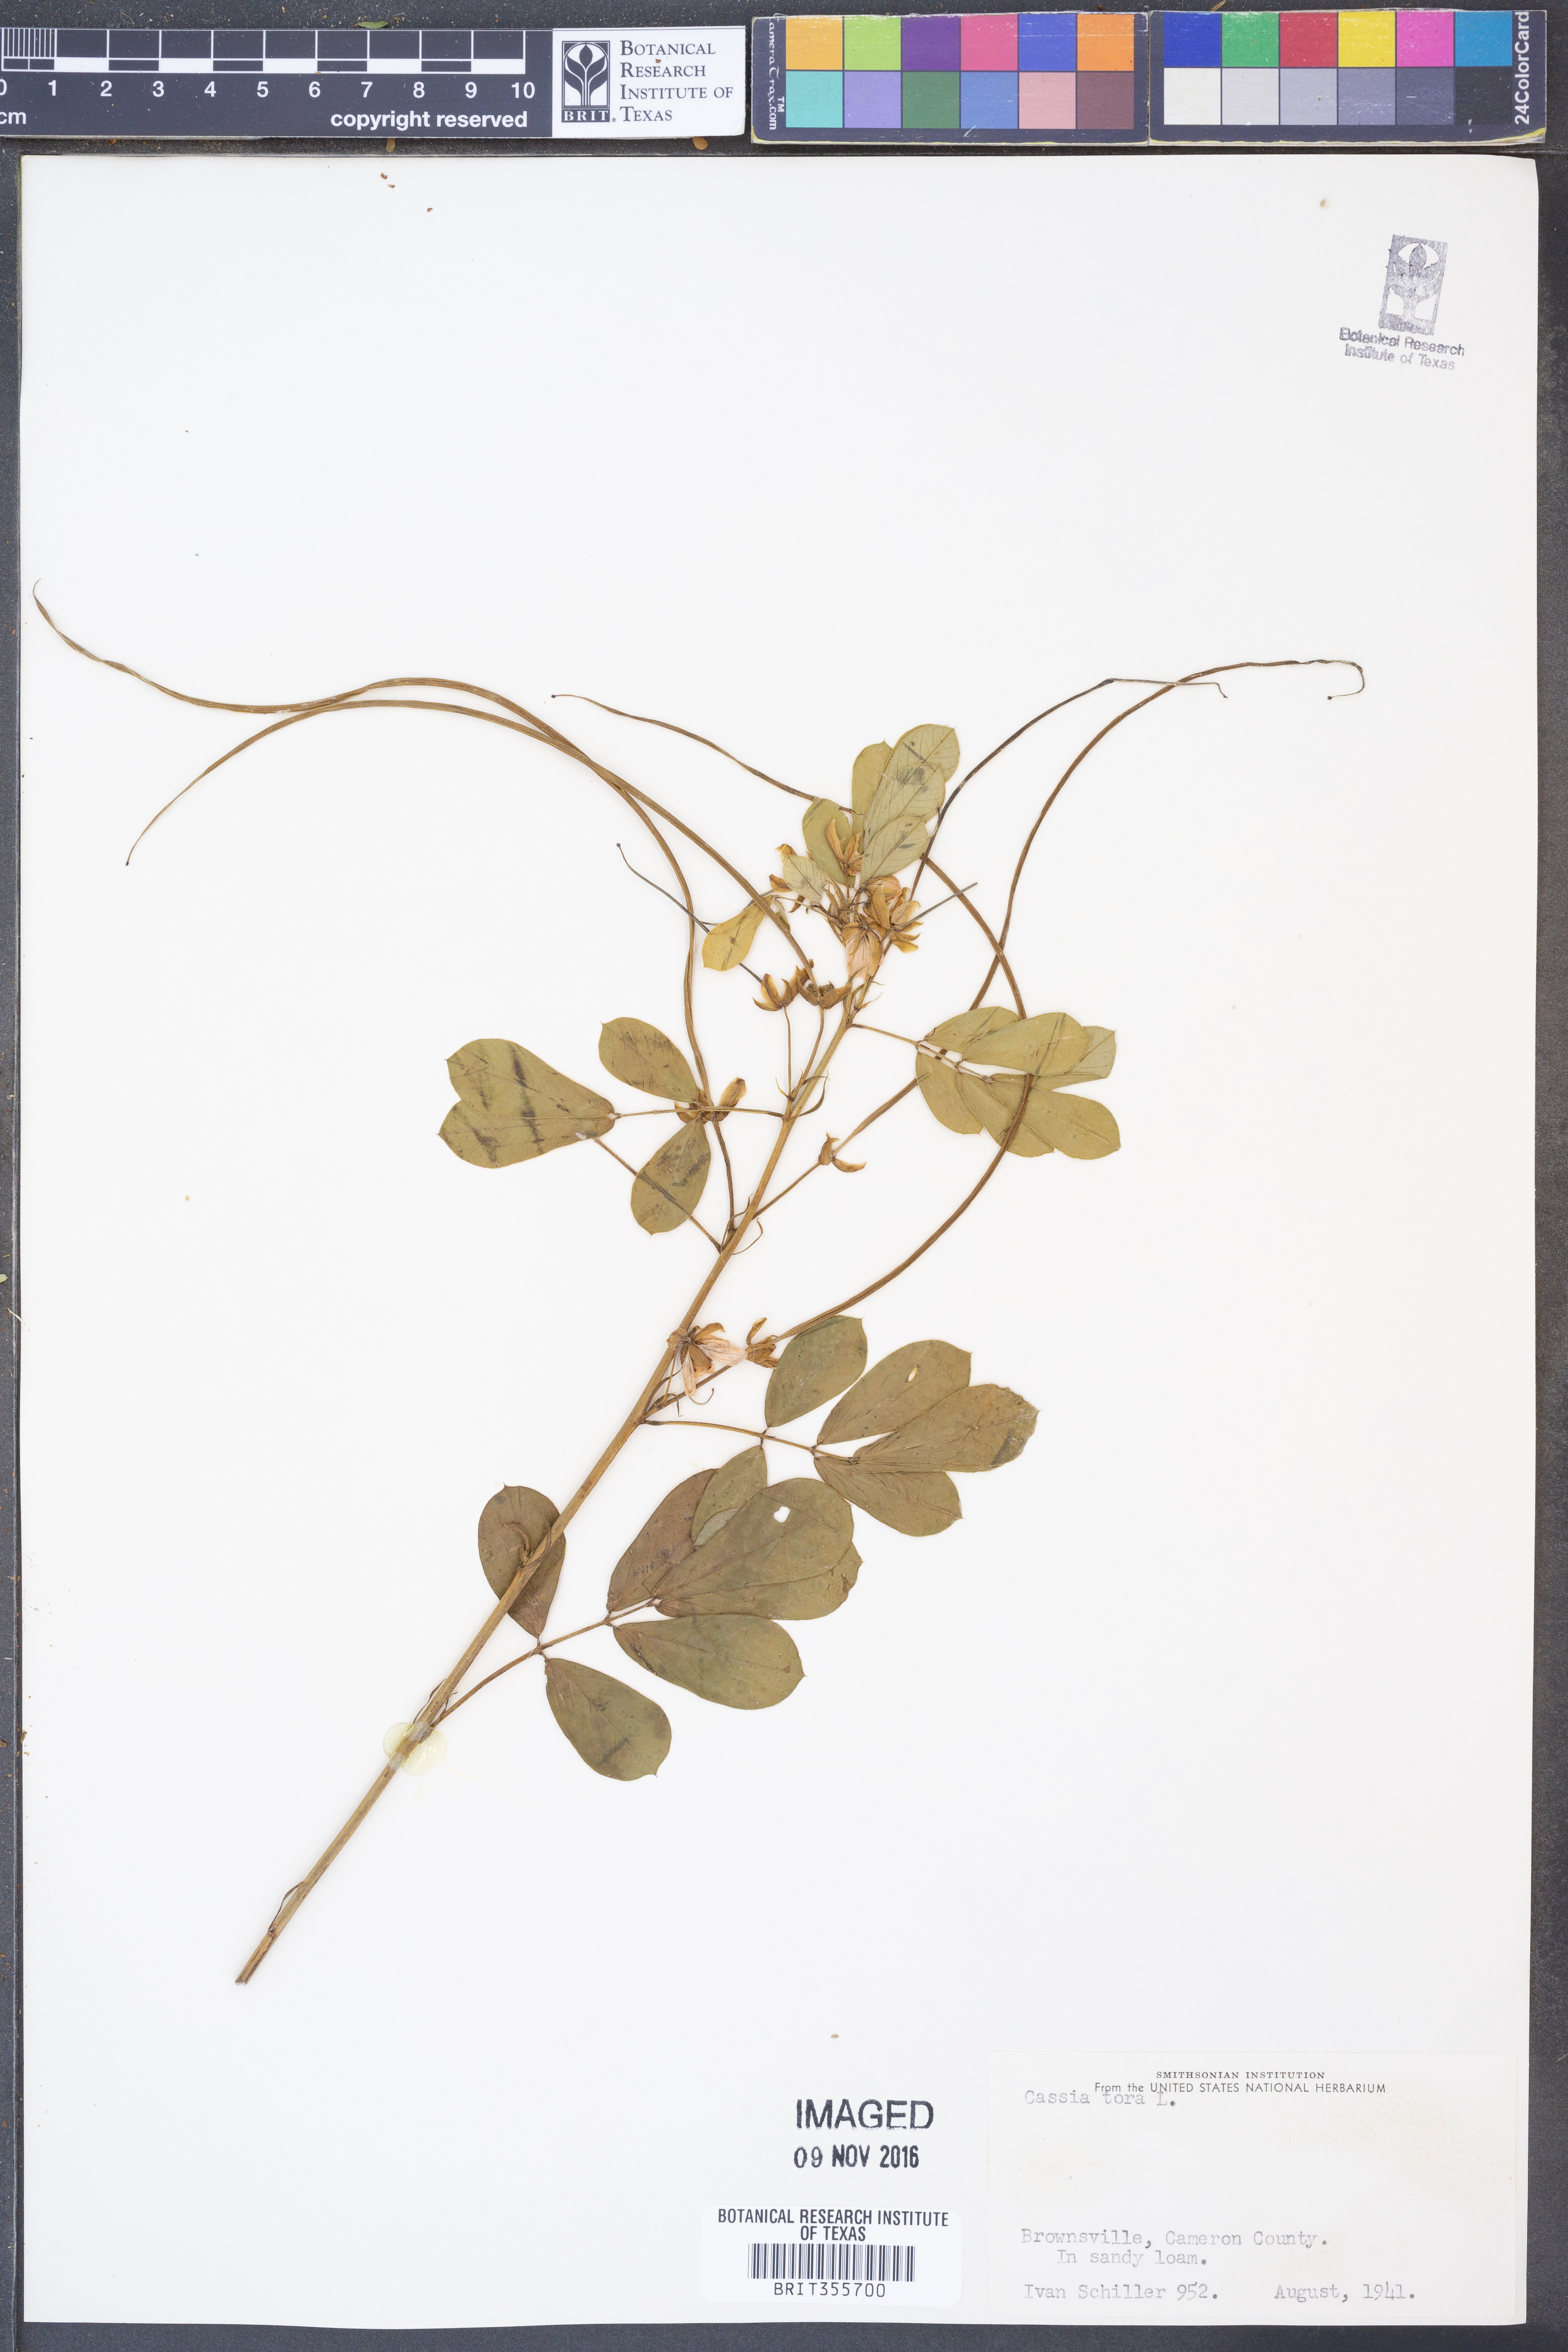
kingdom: Plantae
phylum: Tracheophyta
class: Magnoliopsida
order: Fabales
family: Fabaceae
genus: Senna
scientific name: Senna tora
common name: Sickle senna
